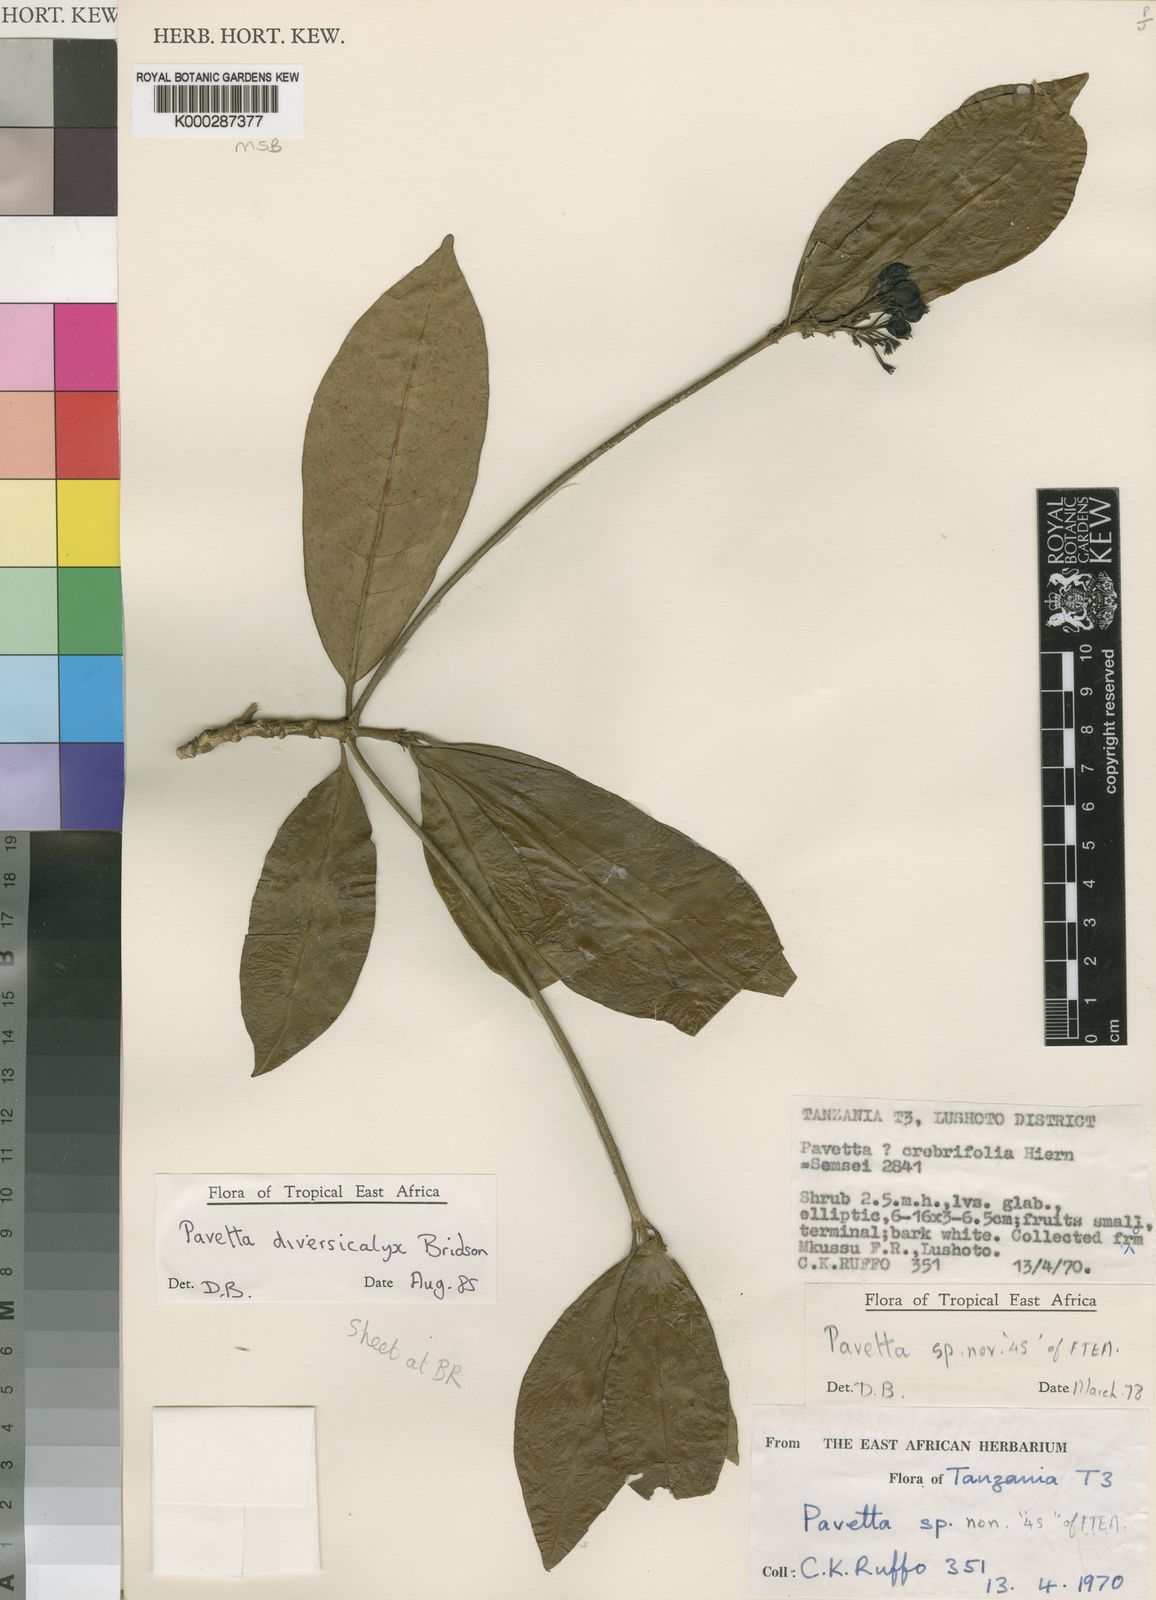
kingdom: Plantae
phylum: Tracheophyta
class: Magnoliopsida
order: Gentianales
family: Rubiaceae
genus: Pavetta
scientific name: Pavetta diversicalyx
